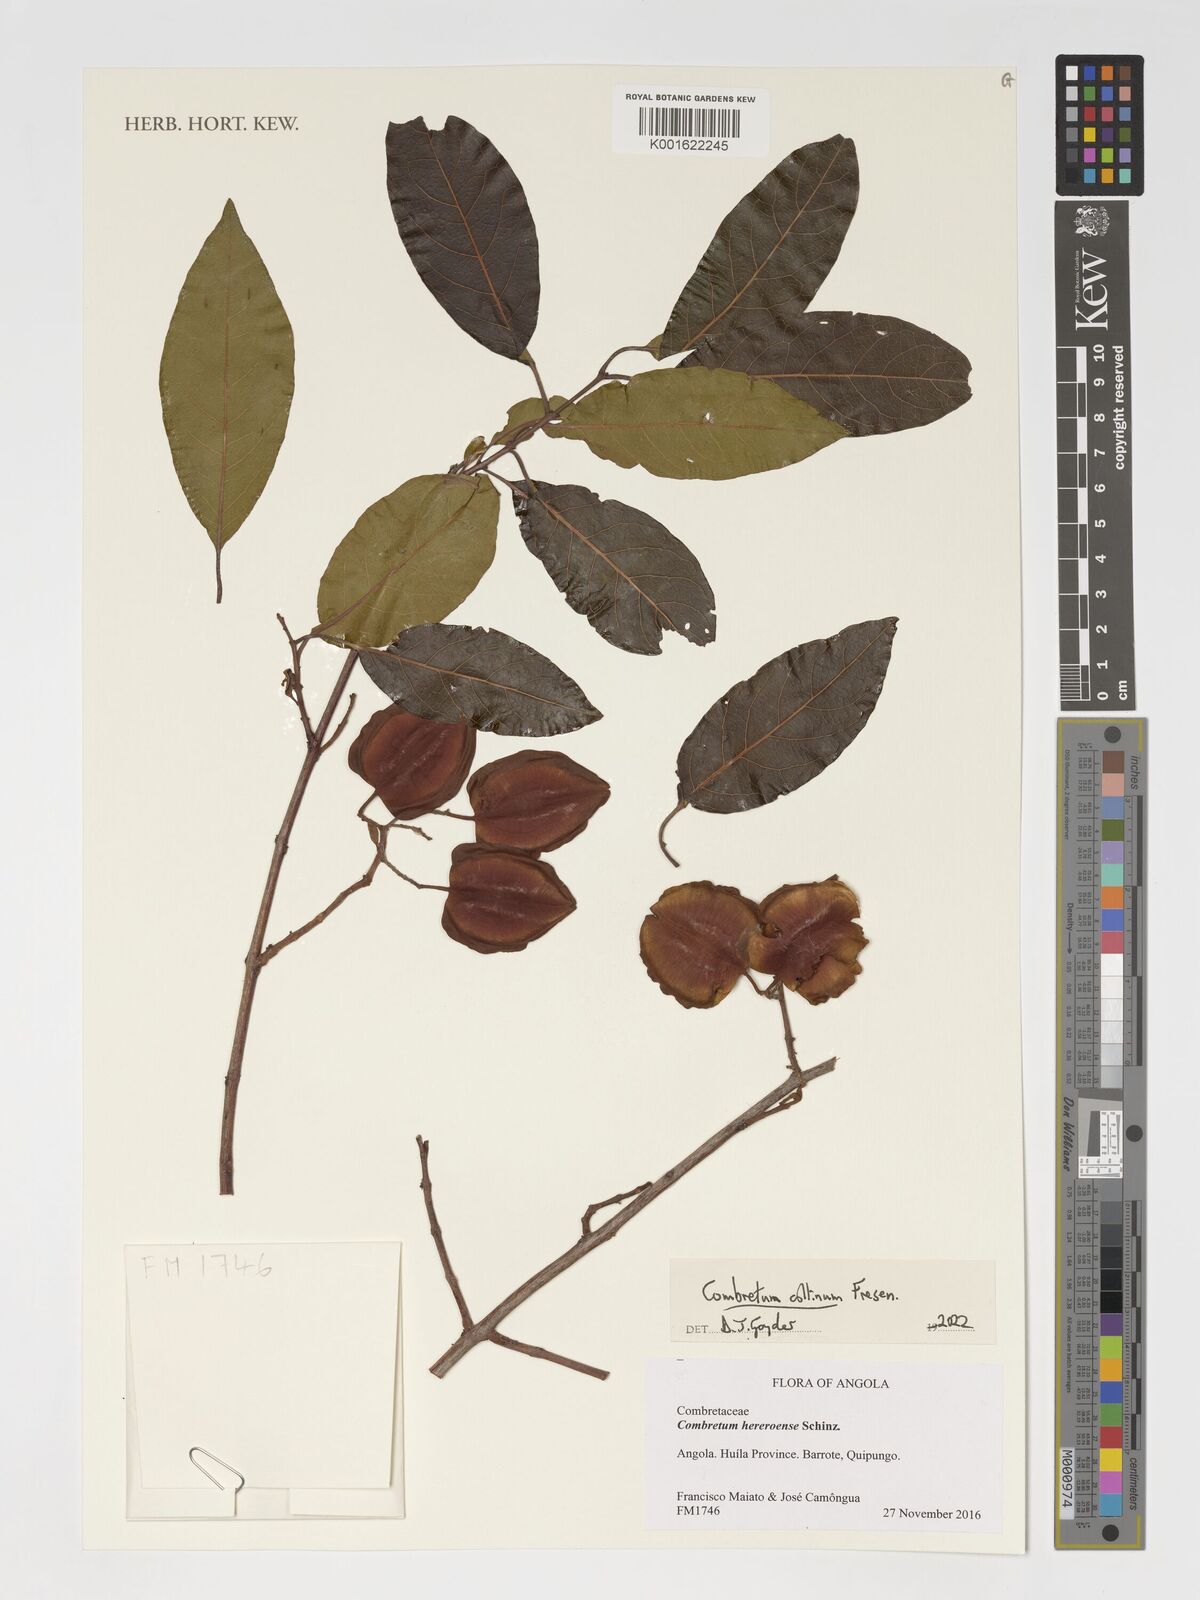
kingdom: Plantae
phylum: Tracheophyta
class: Magnoliopsida
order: Myrtales
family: Combretaceae
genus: Combretum
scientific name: Combretum collinum
